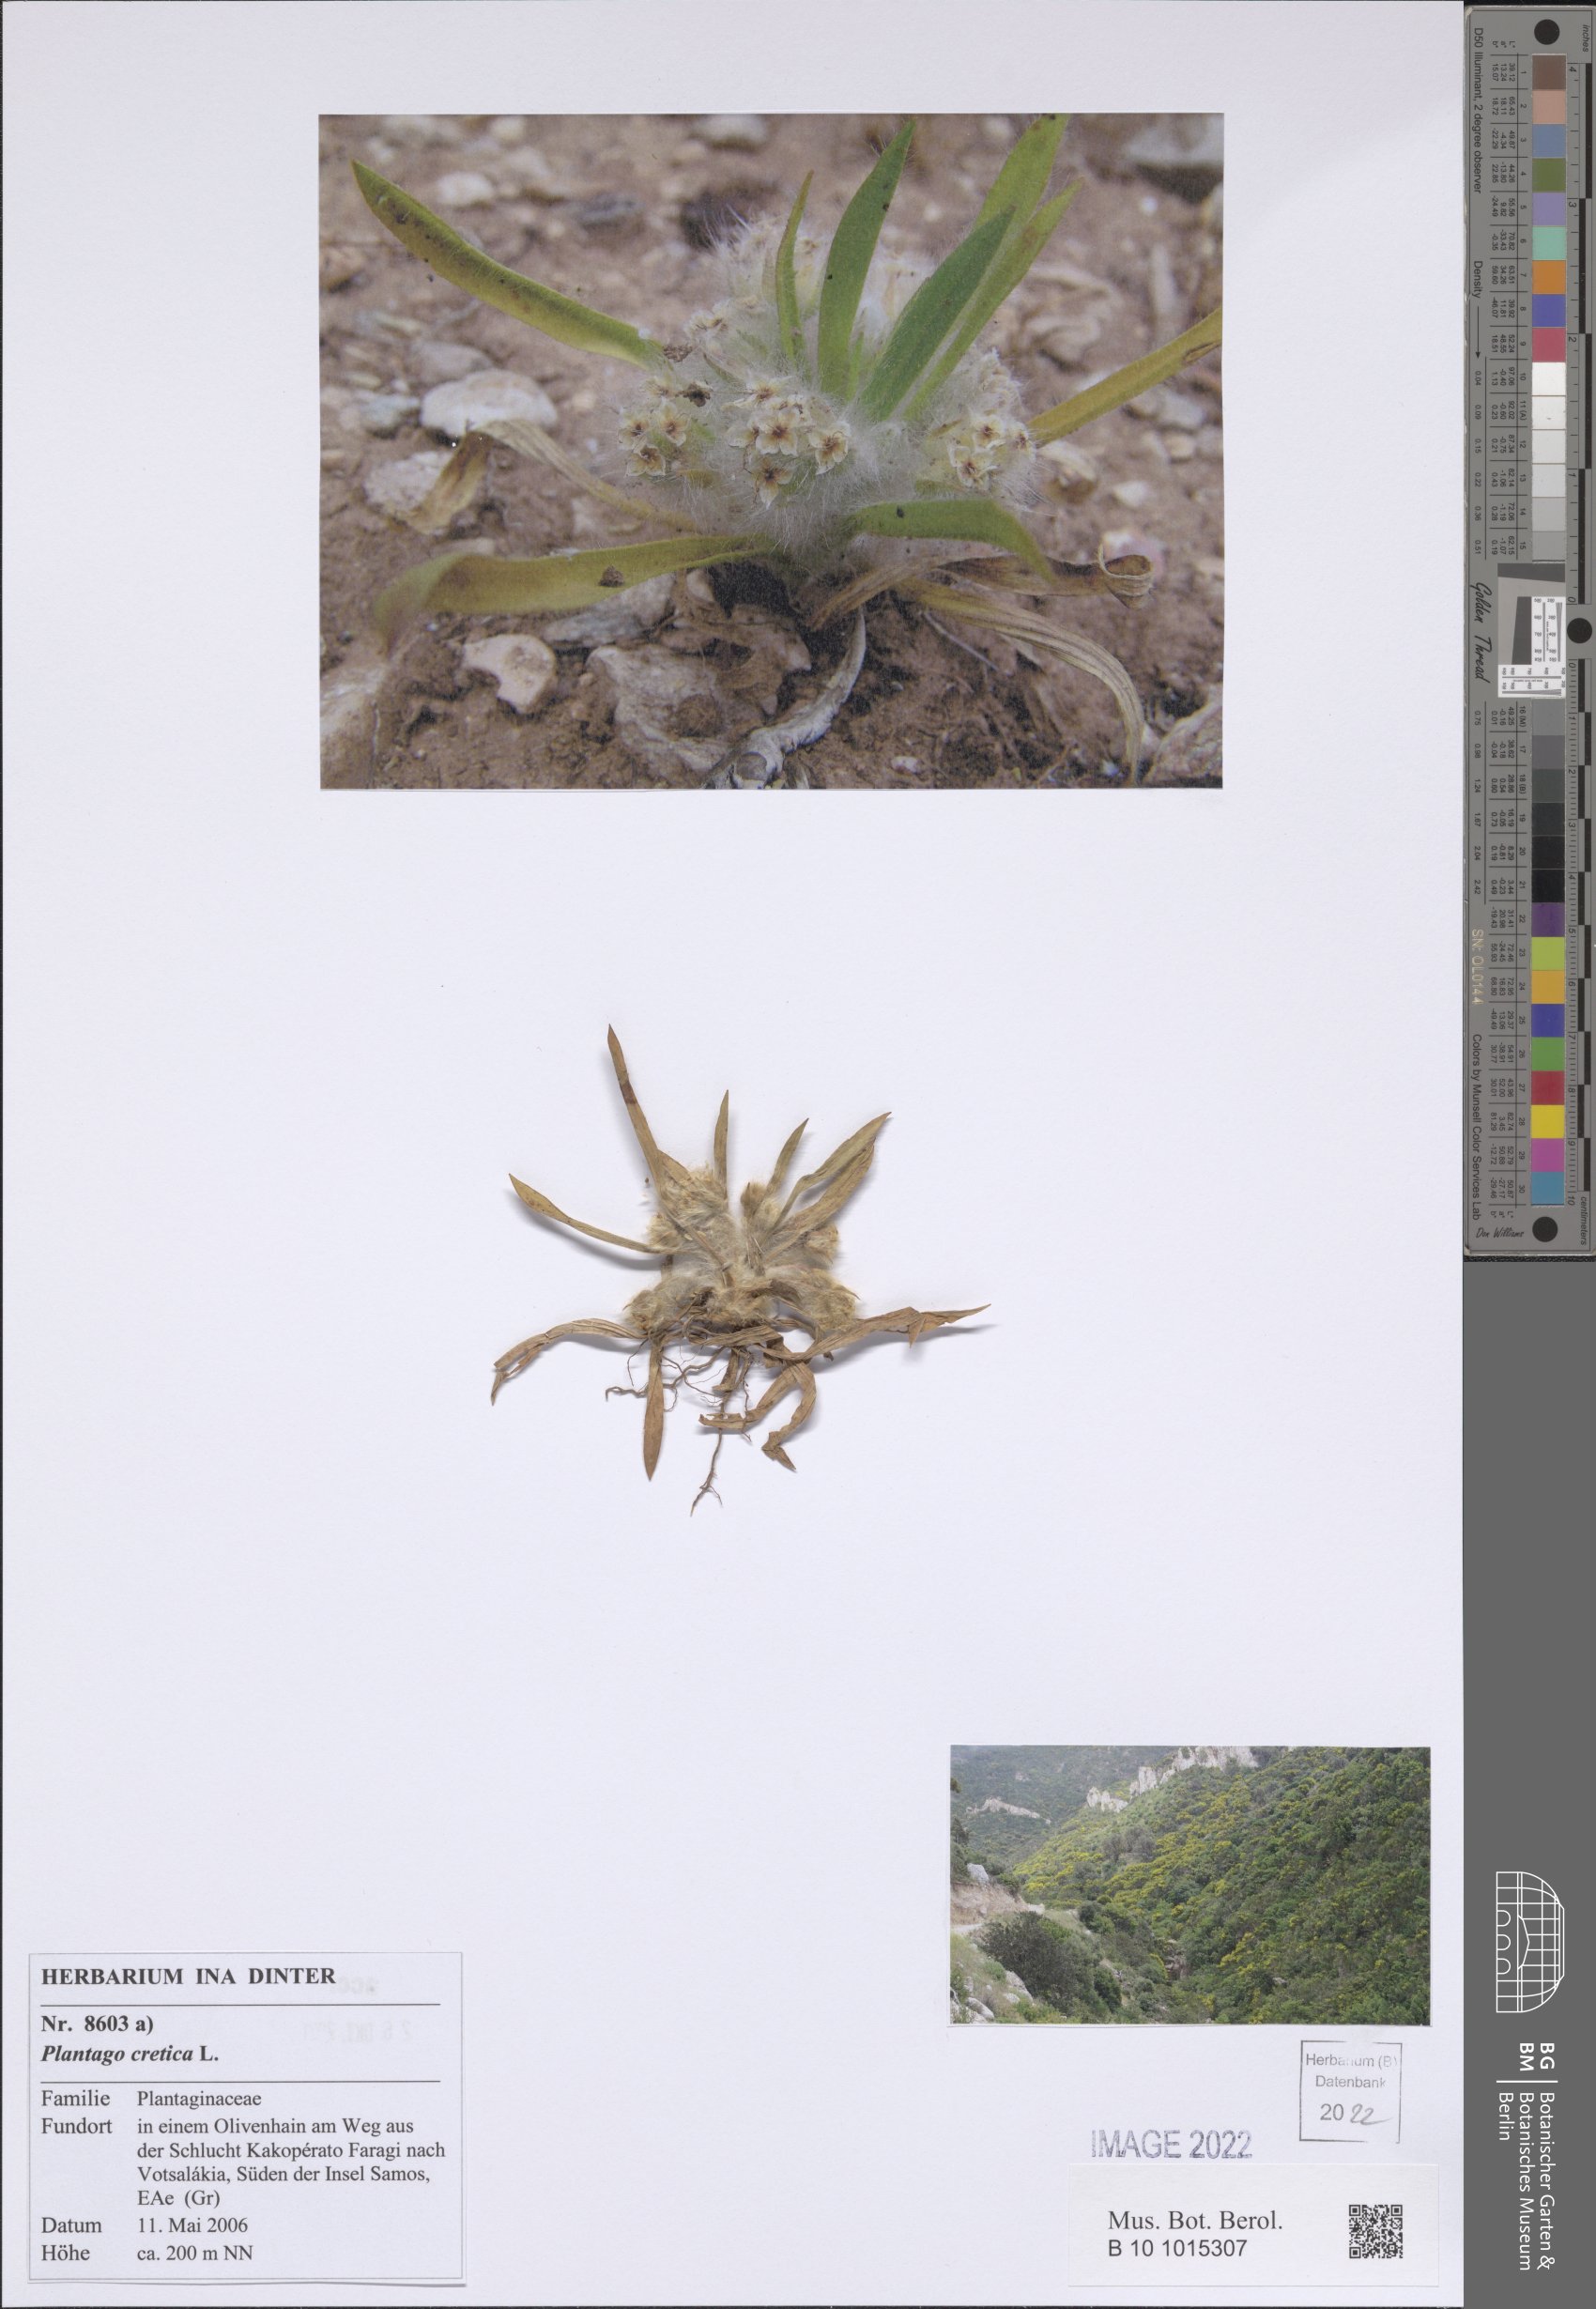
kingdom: Plantae
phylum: Tracheophyta
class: Magnoliopsida
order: Lamiales
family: Plantaginaceae
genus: Plantago
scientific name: Plantago cretica
